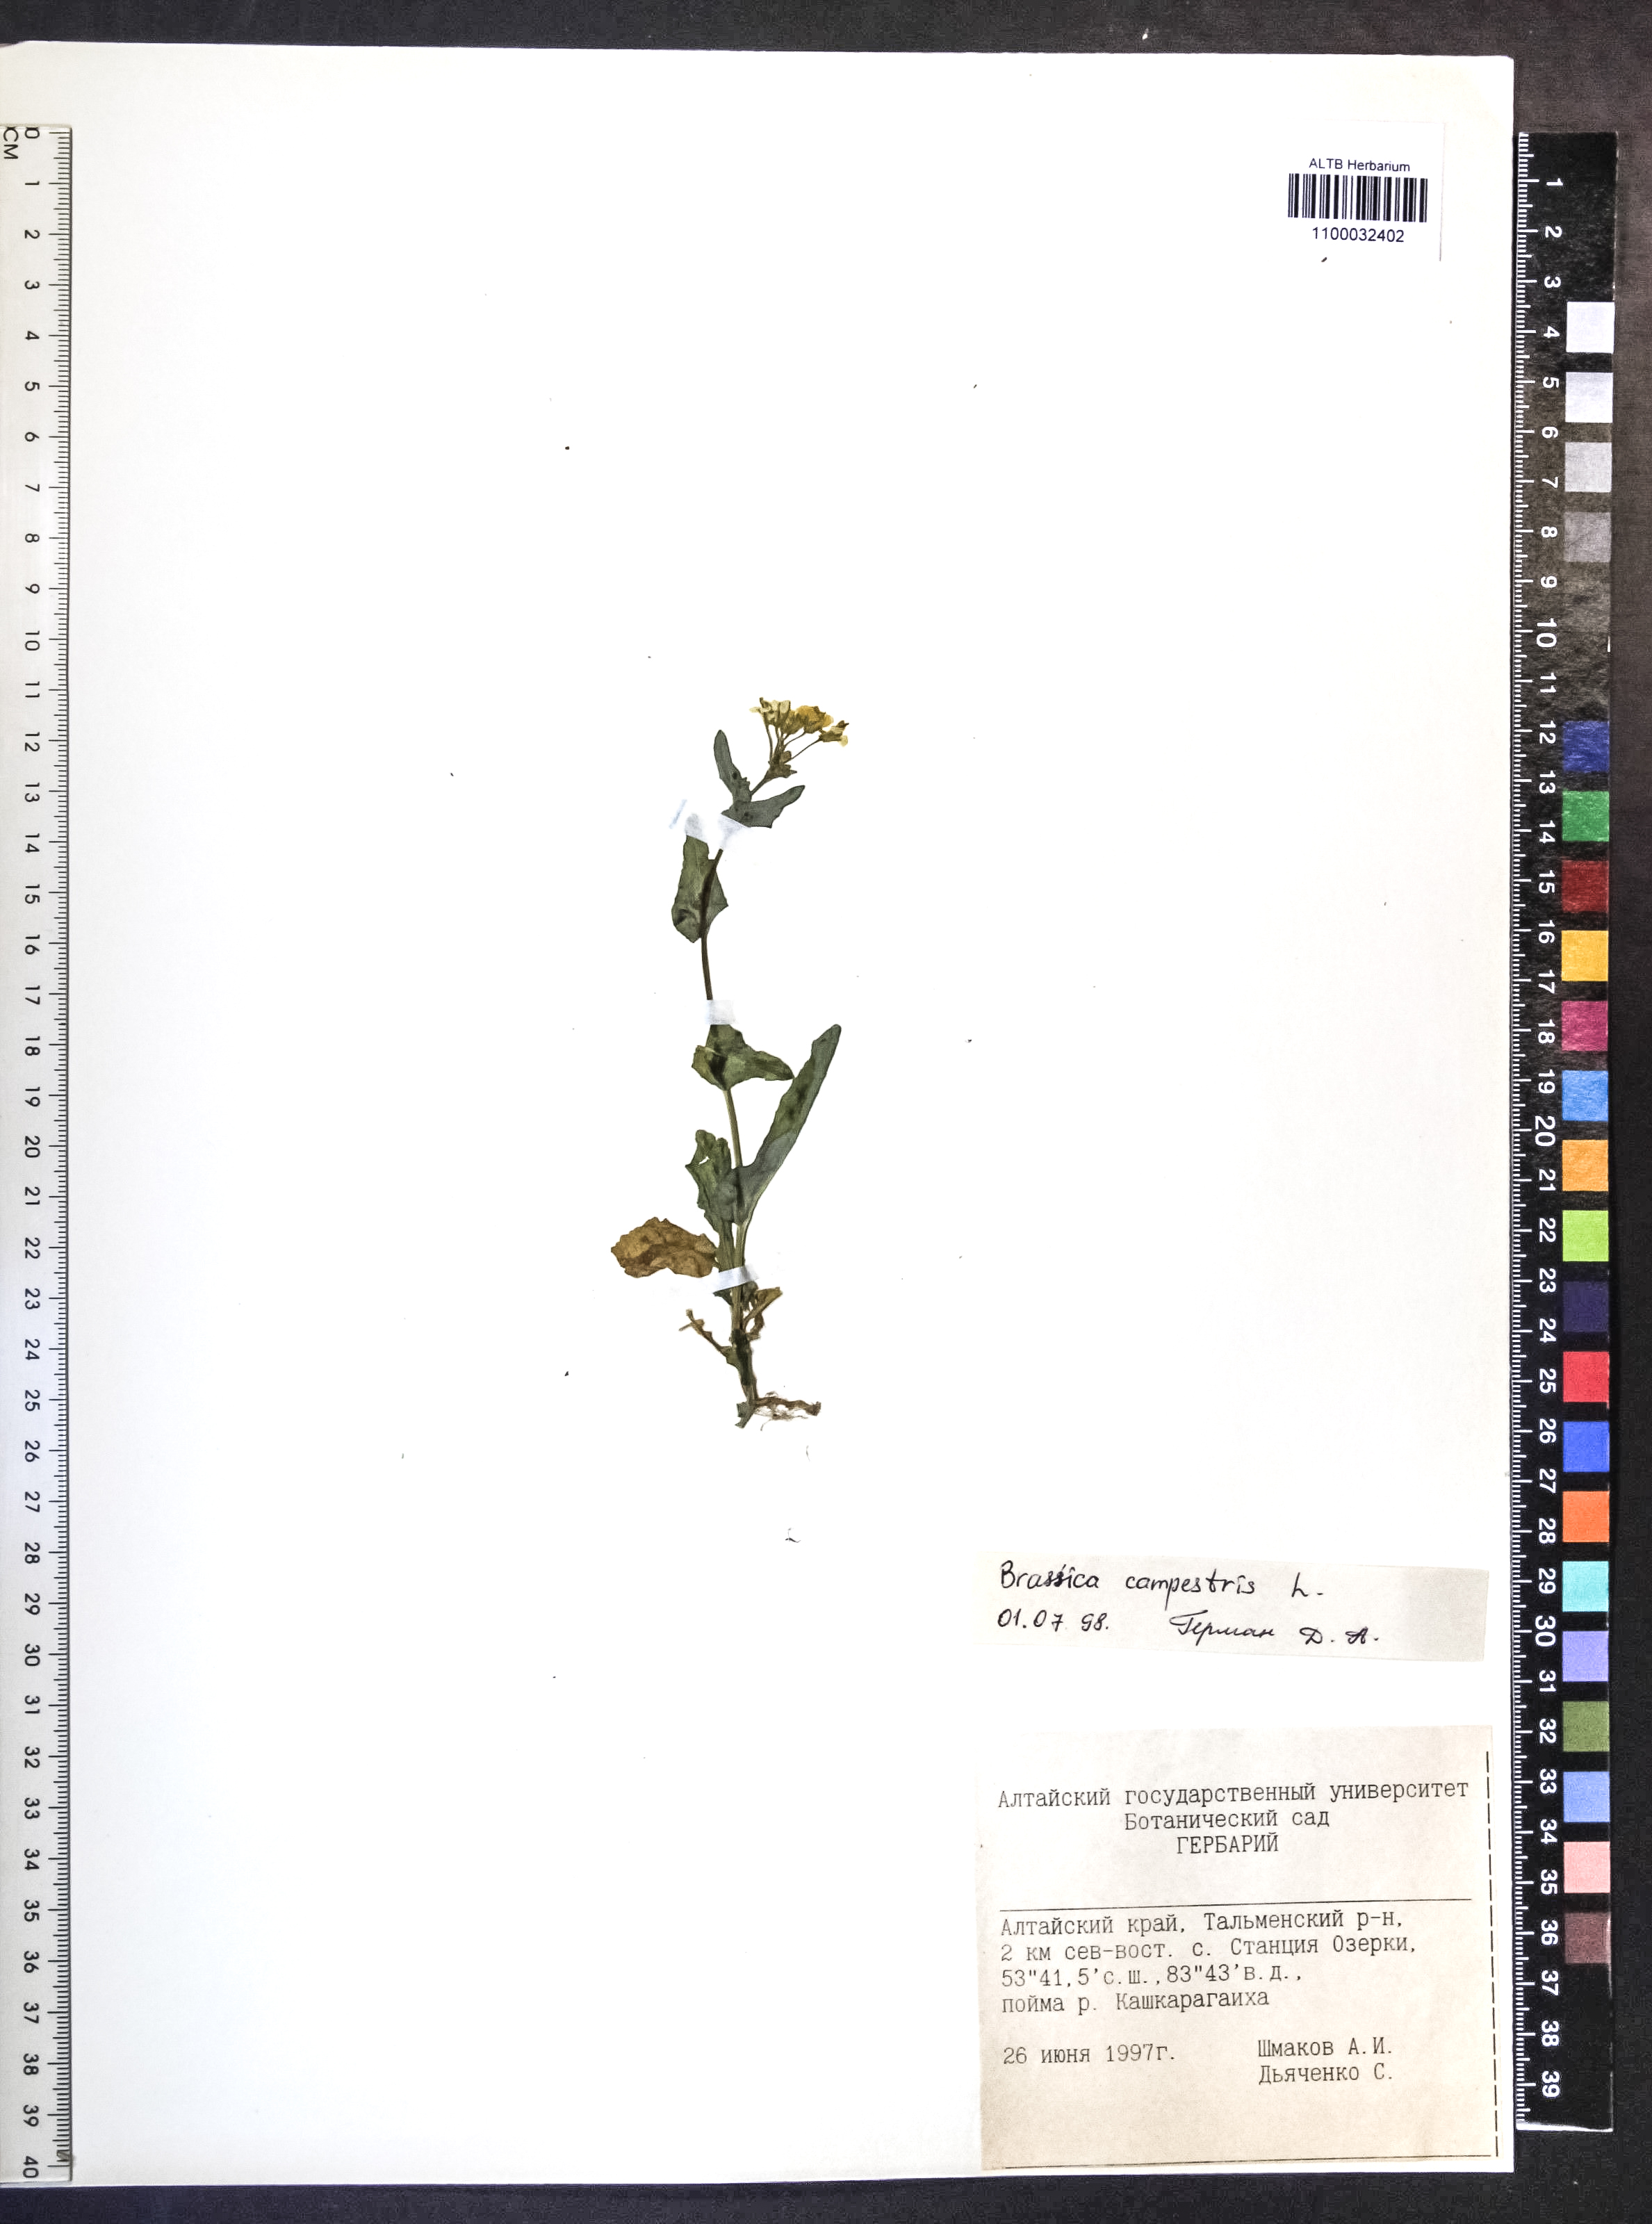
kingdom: Plantae
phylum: Tracheophyta
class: Magnoliopsida
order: Brassicales
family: Brassicaceae
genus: Brassica
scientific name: Brassica rapa
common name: Field mustard
